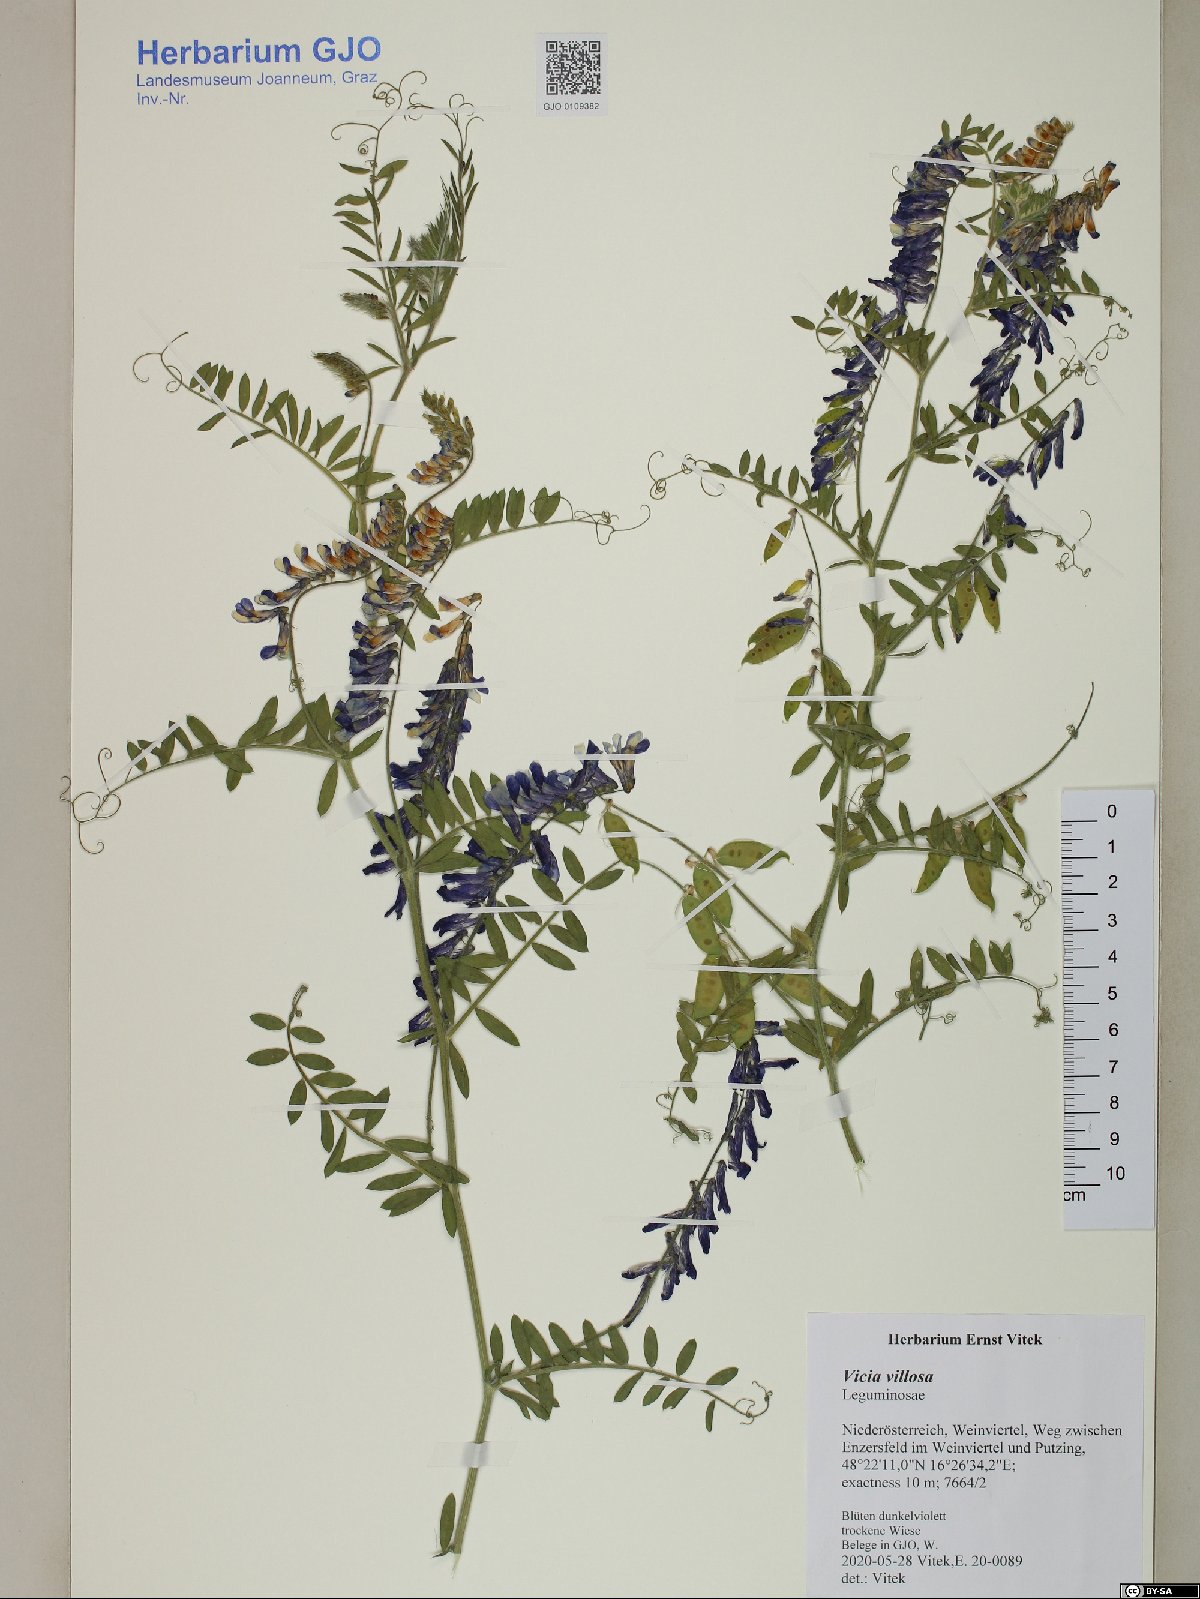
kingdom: Plantae
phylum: Tracheophyta
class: Magnoliopsida
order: Fabales
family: Fabaceae
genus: Vicia
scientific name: Vicia villosa
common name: Fodder vetch
